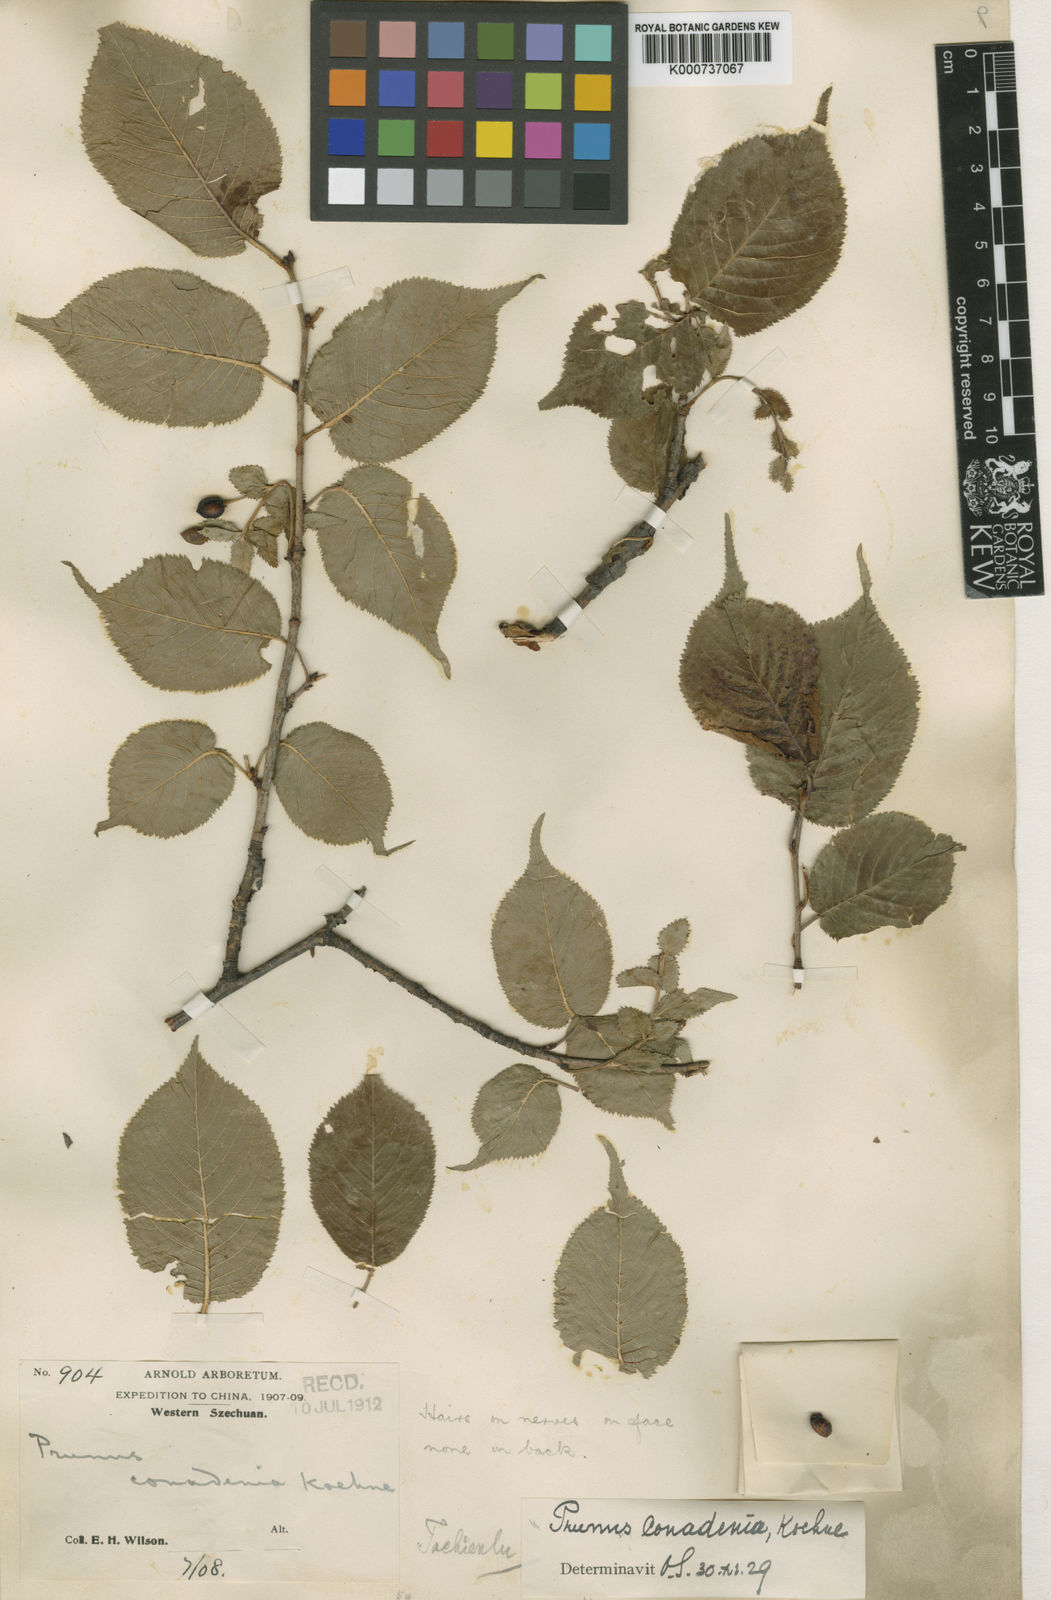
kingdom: Plantae
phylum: Tracheophyta
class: Magnoliopsida
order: Rosales
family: Rosaceae
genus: Prunus
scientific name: Prunus conadenia
